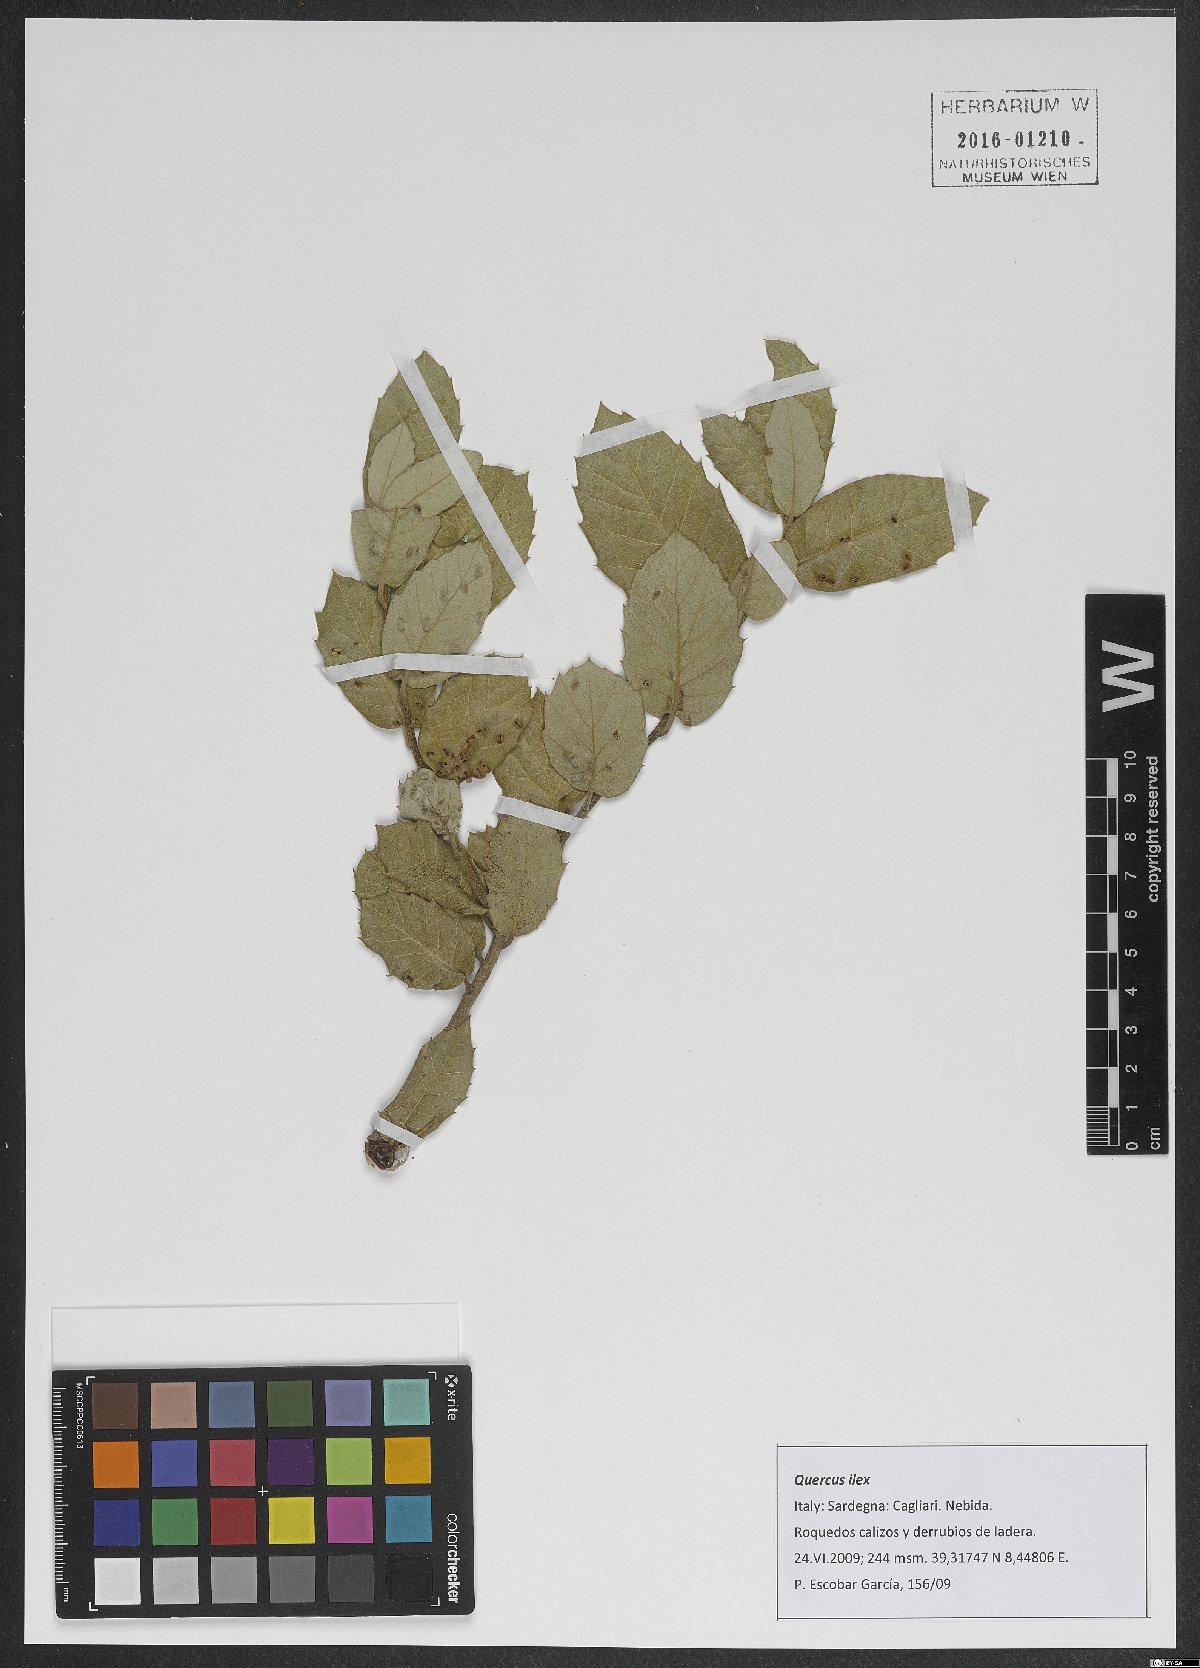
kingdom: Plantae
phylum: Tracheophyta
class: Magnoliopsida
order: Fagales
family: Fagaceae
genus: Quercus
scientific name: Quercus ilex
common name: Evergreen oak
